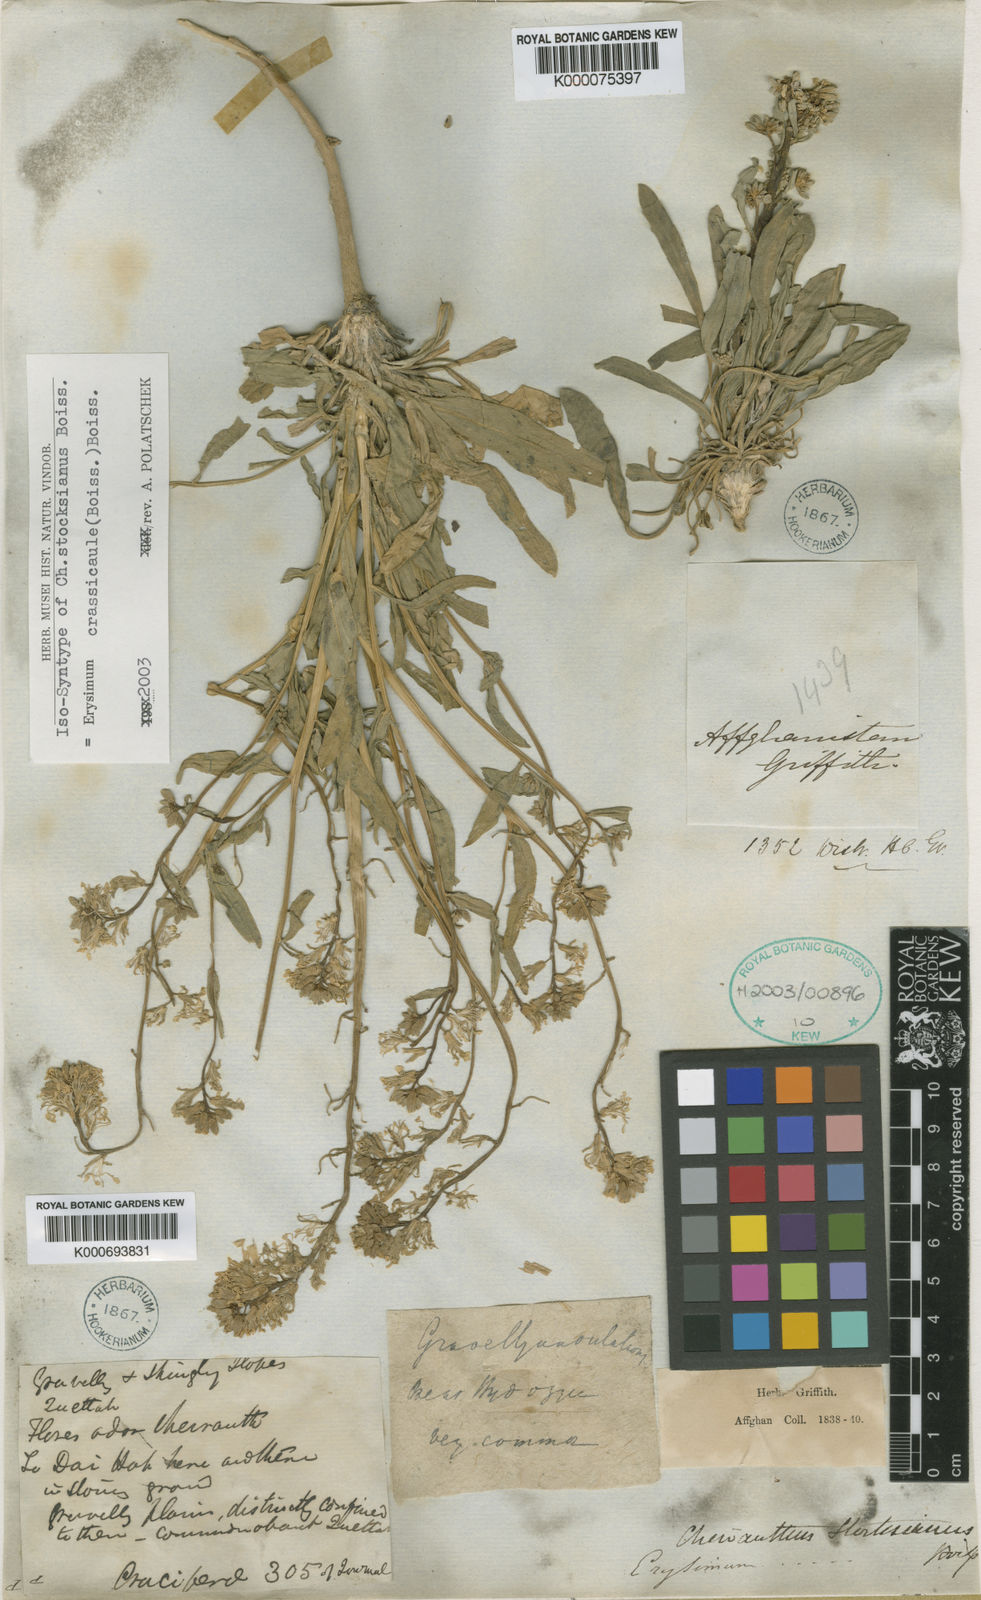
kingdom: Plantae
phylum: Tracheophyta
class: Magnoliopsida
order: Brassicales
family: Brassicaceae
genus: Erysimum
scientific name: Erysimum crassicaule
